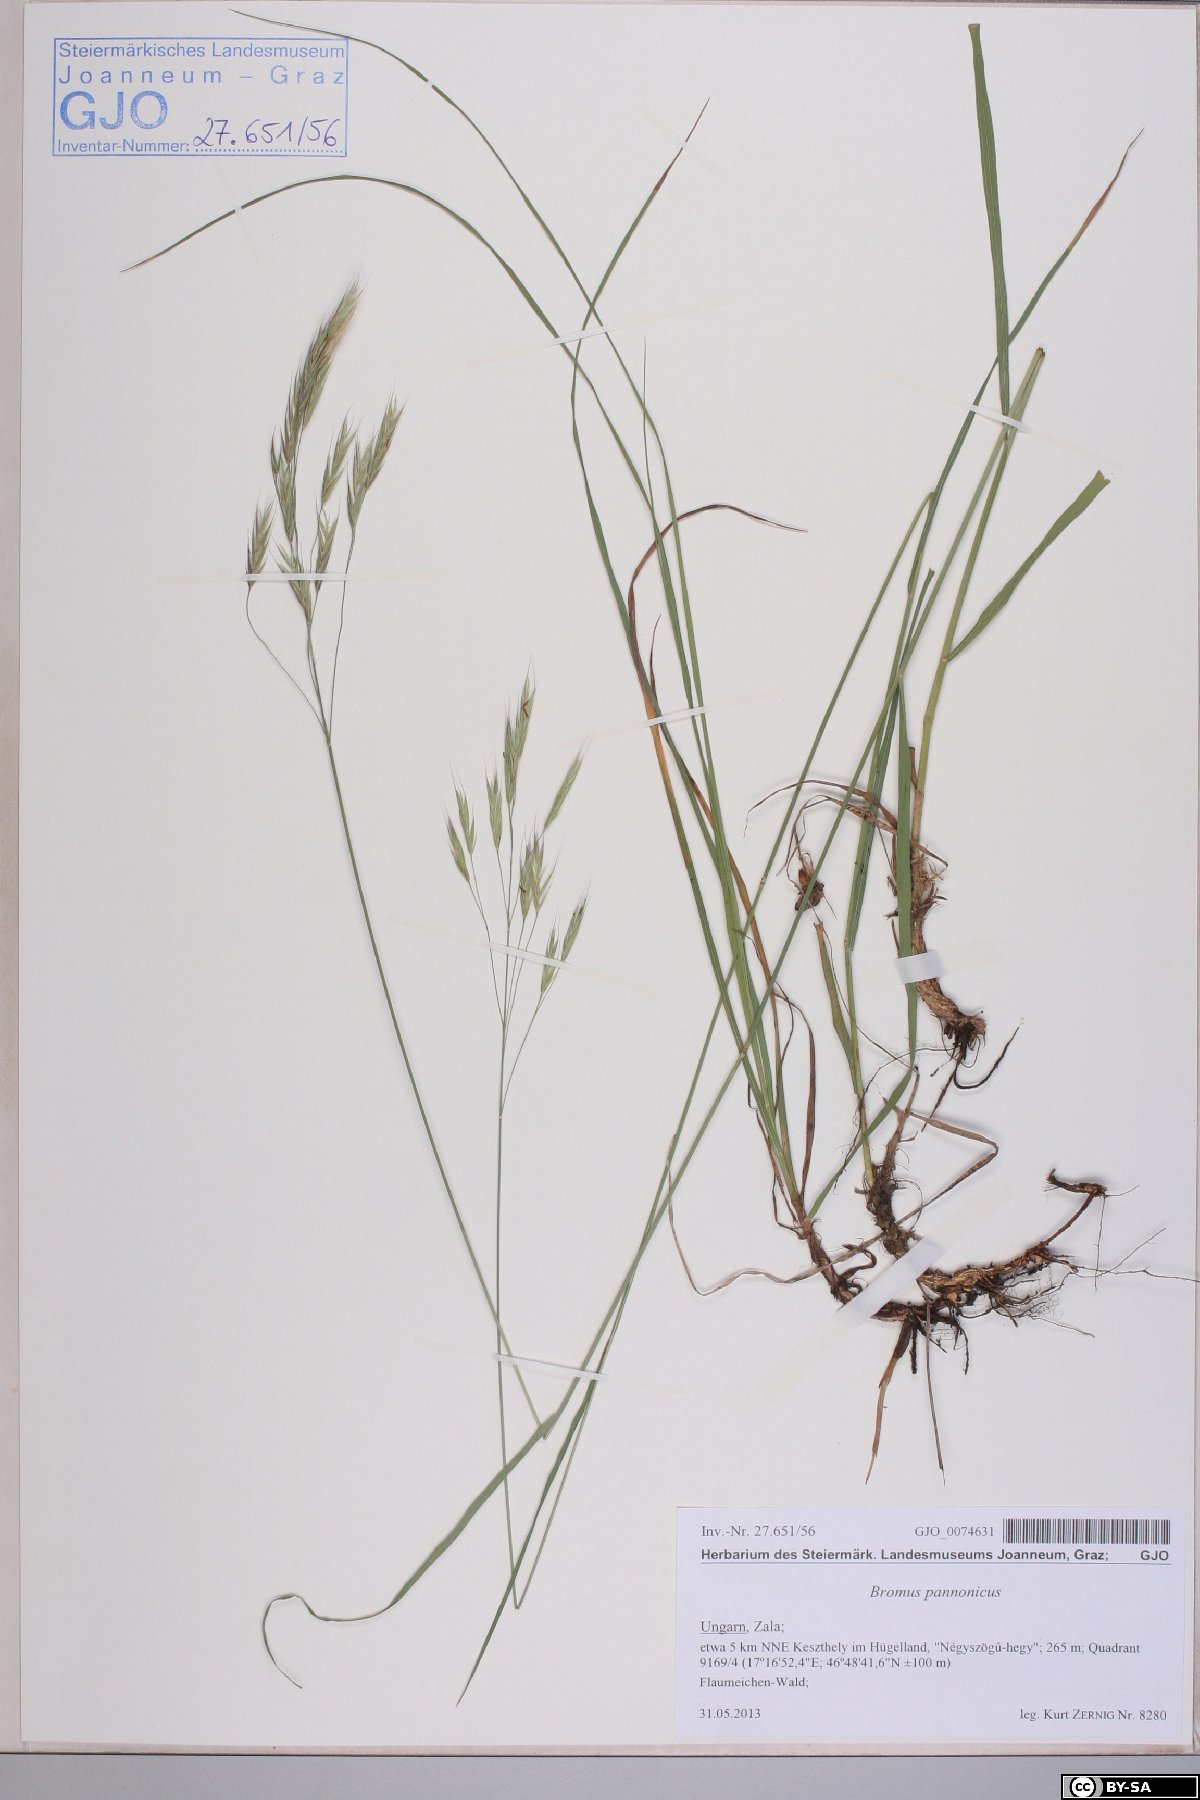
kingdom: Plantae
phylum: Tracheophyta
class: Liliopsida
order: Poales
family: Poaceae
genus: Bromus
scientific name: Bromus pannonicus
